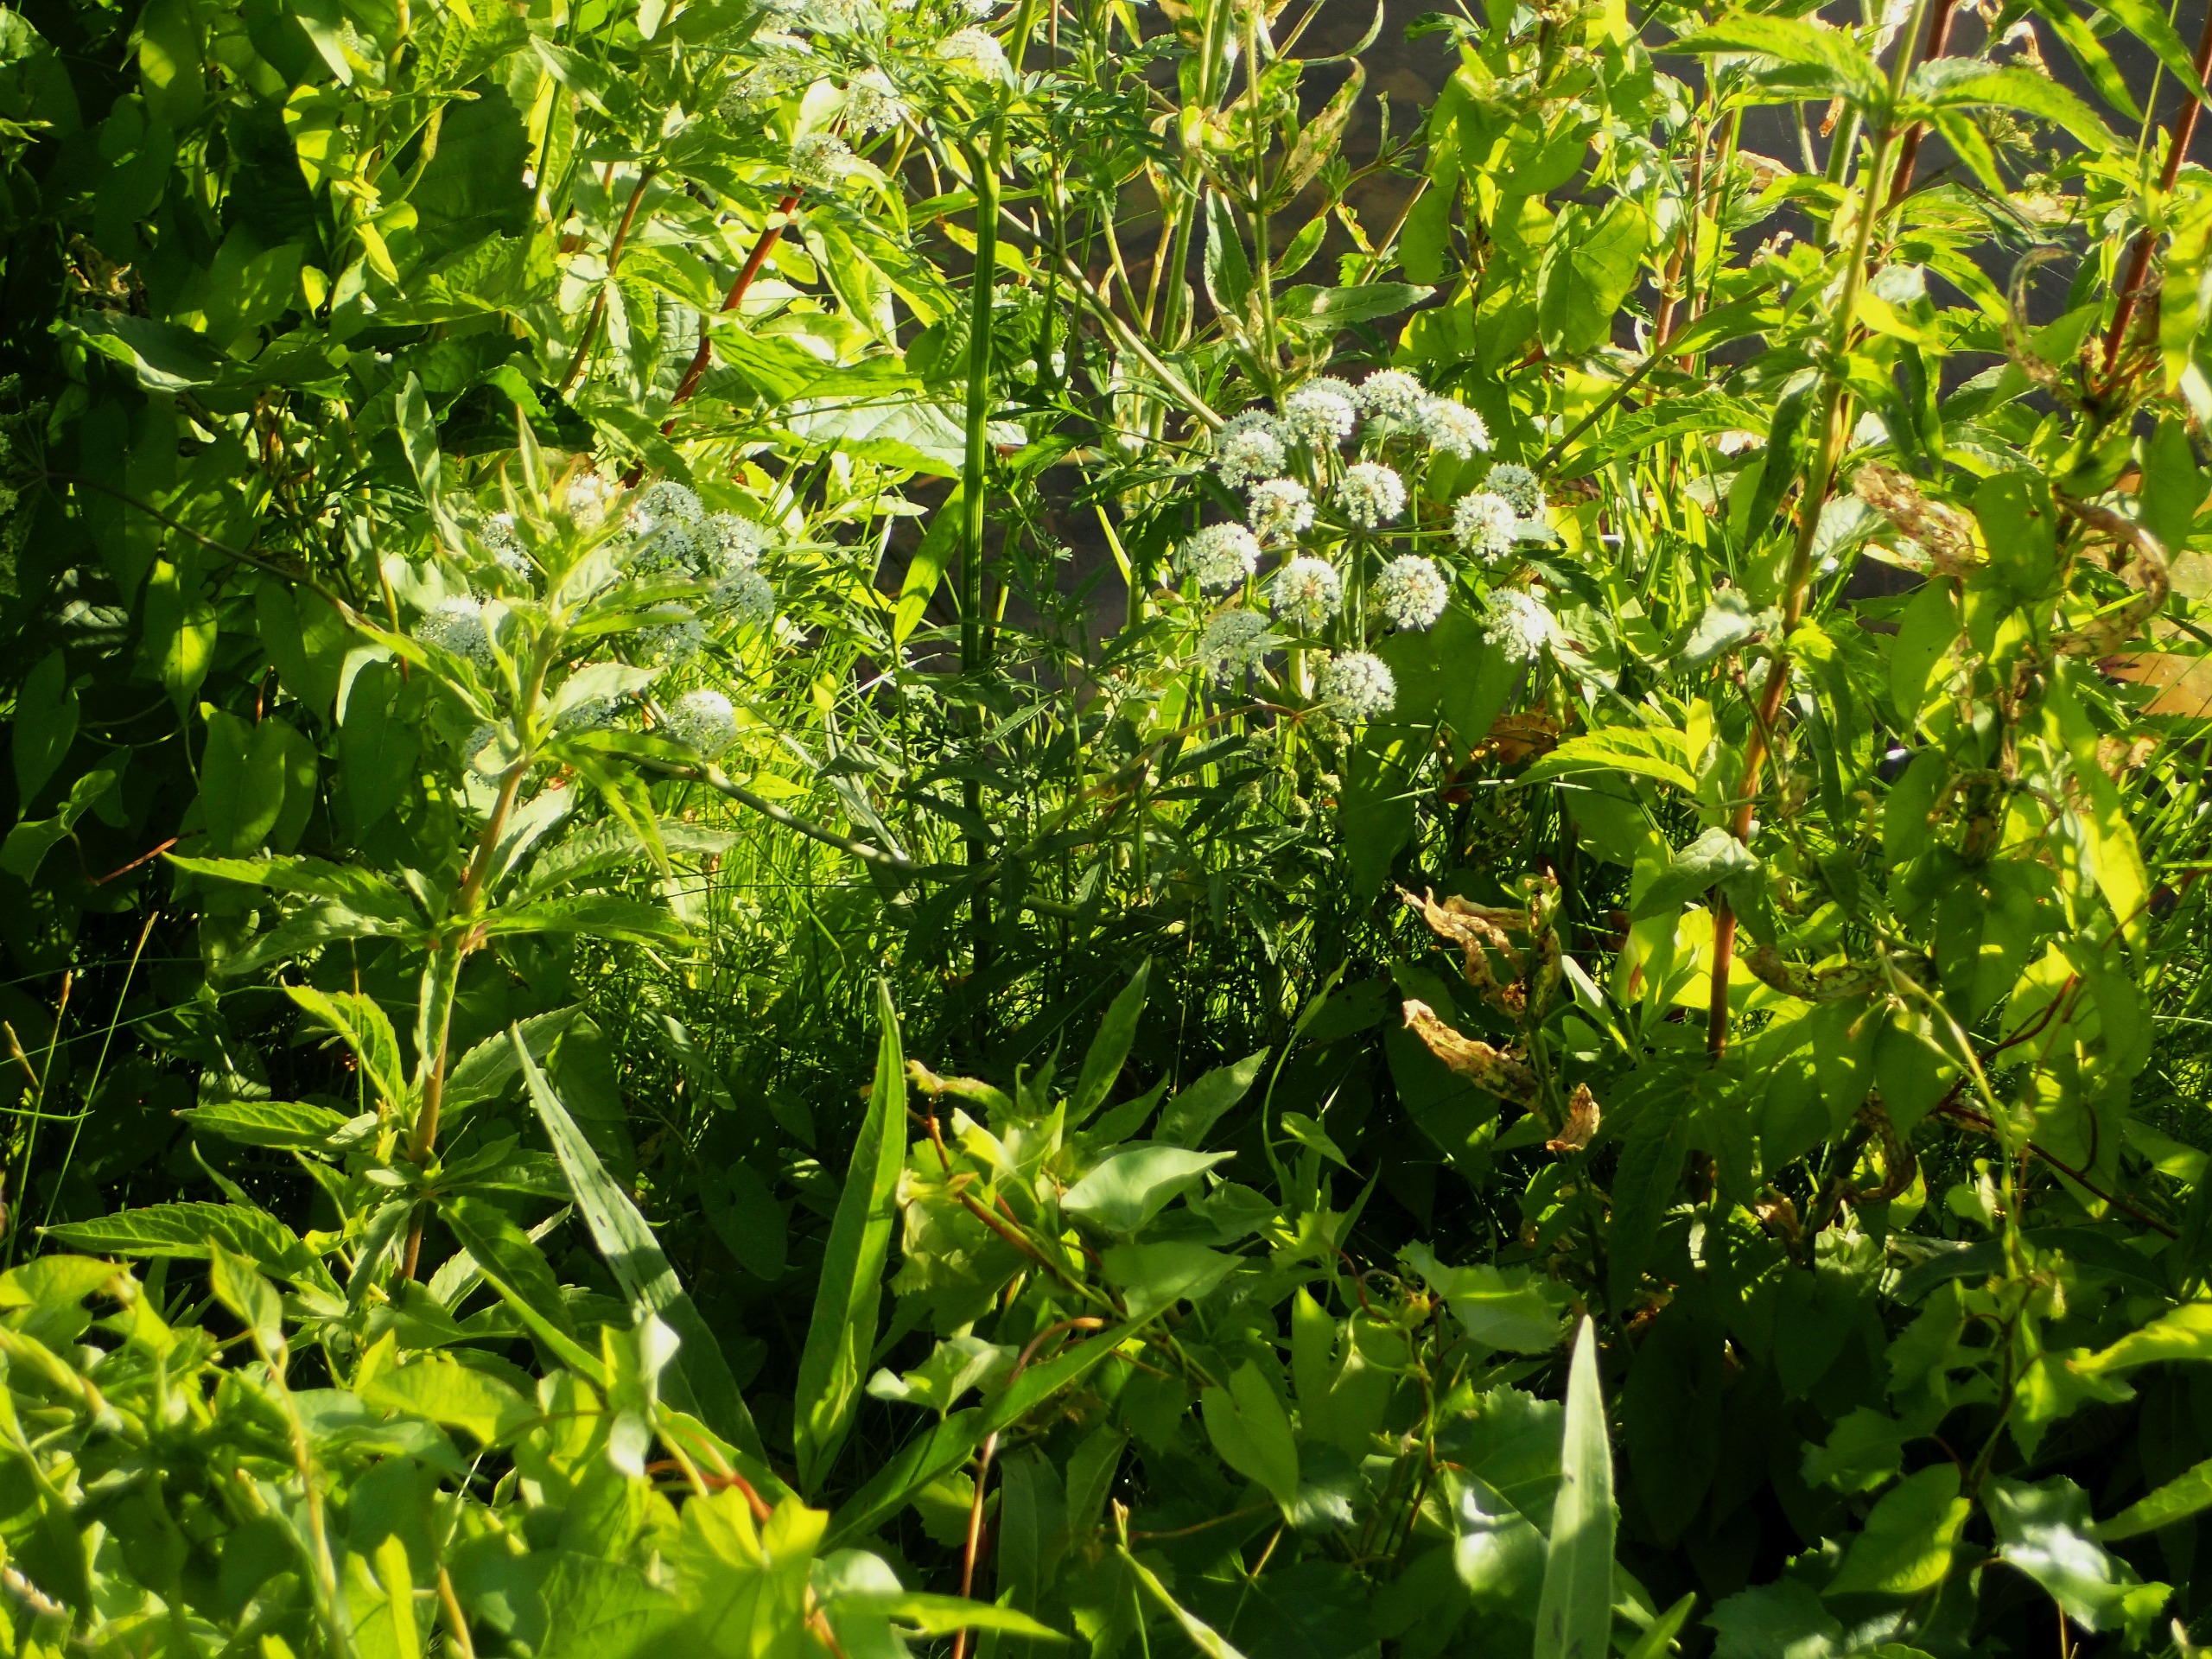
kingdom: Plantae
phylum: Tracheophyta
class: Magnoliopsida
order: Apiales
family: Apiaceae
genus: Cicuta
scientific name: Cicuta virosa
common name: Gifttyde
